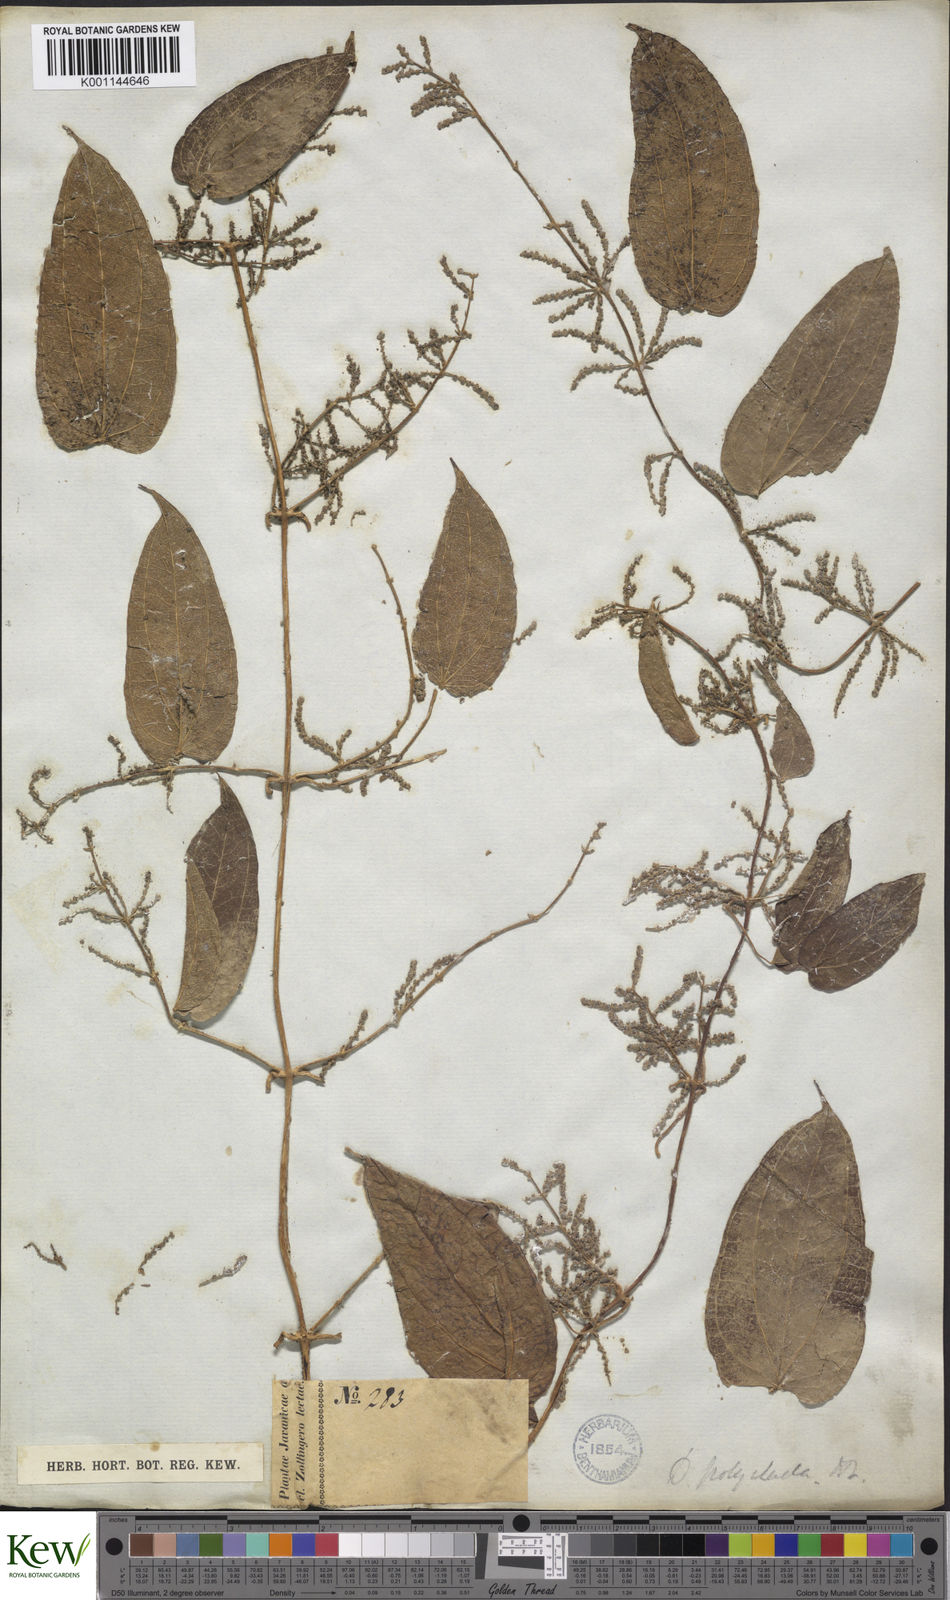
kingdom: Plantae
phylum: Tracheophyta
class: Liliopsida
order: Dioscoreales
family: Dioscoreaceae
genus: Dioscorea
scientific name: Dioscorea polyclados
